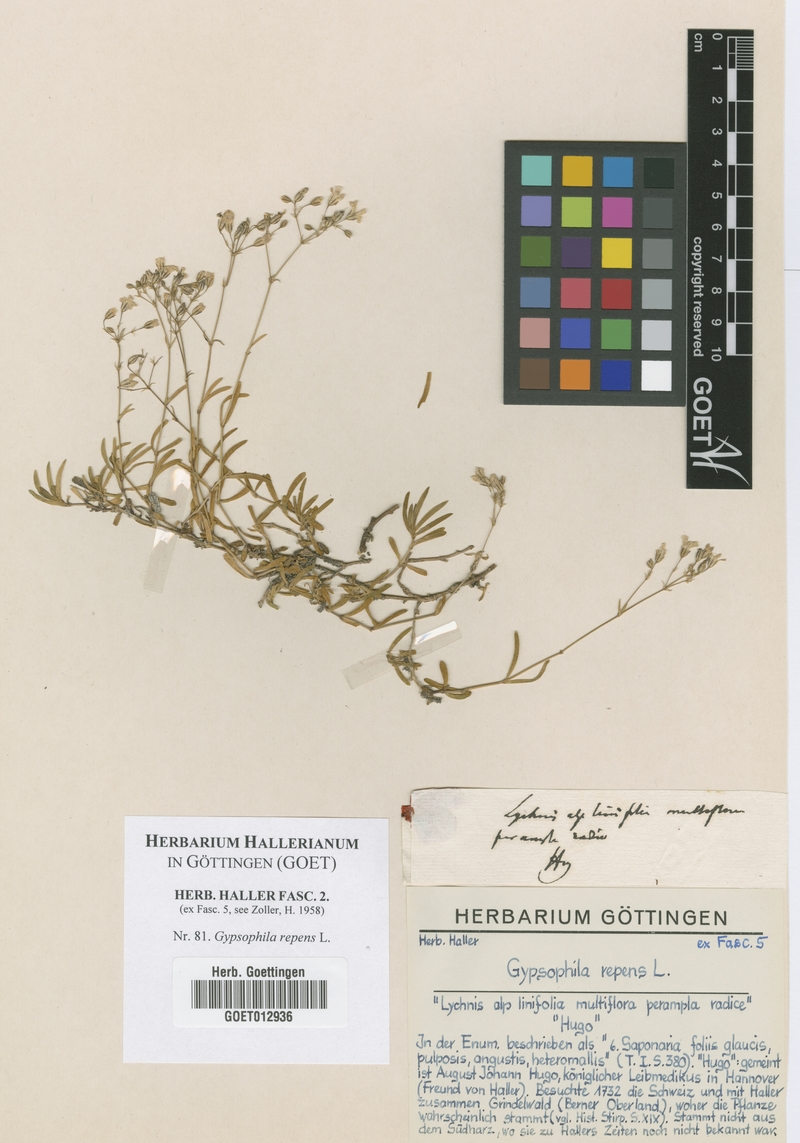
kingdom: Plantae
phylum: Tracheophyta
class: Magnoliopsida
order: Caryophyllales
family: Caryophyllaceae
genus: Gypsophila
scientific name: Gypsophila repens
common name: Creeping baby's-breath
